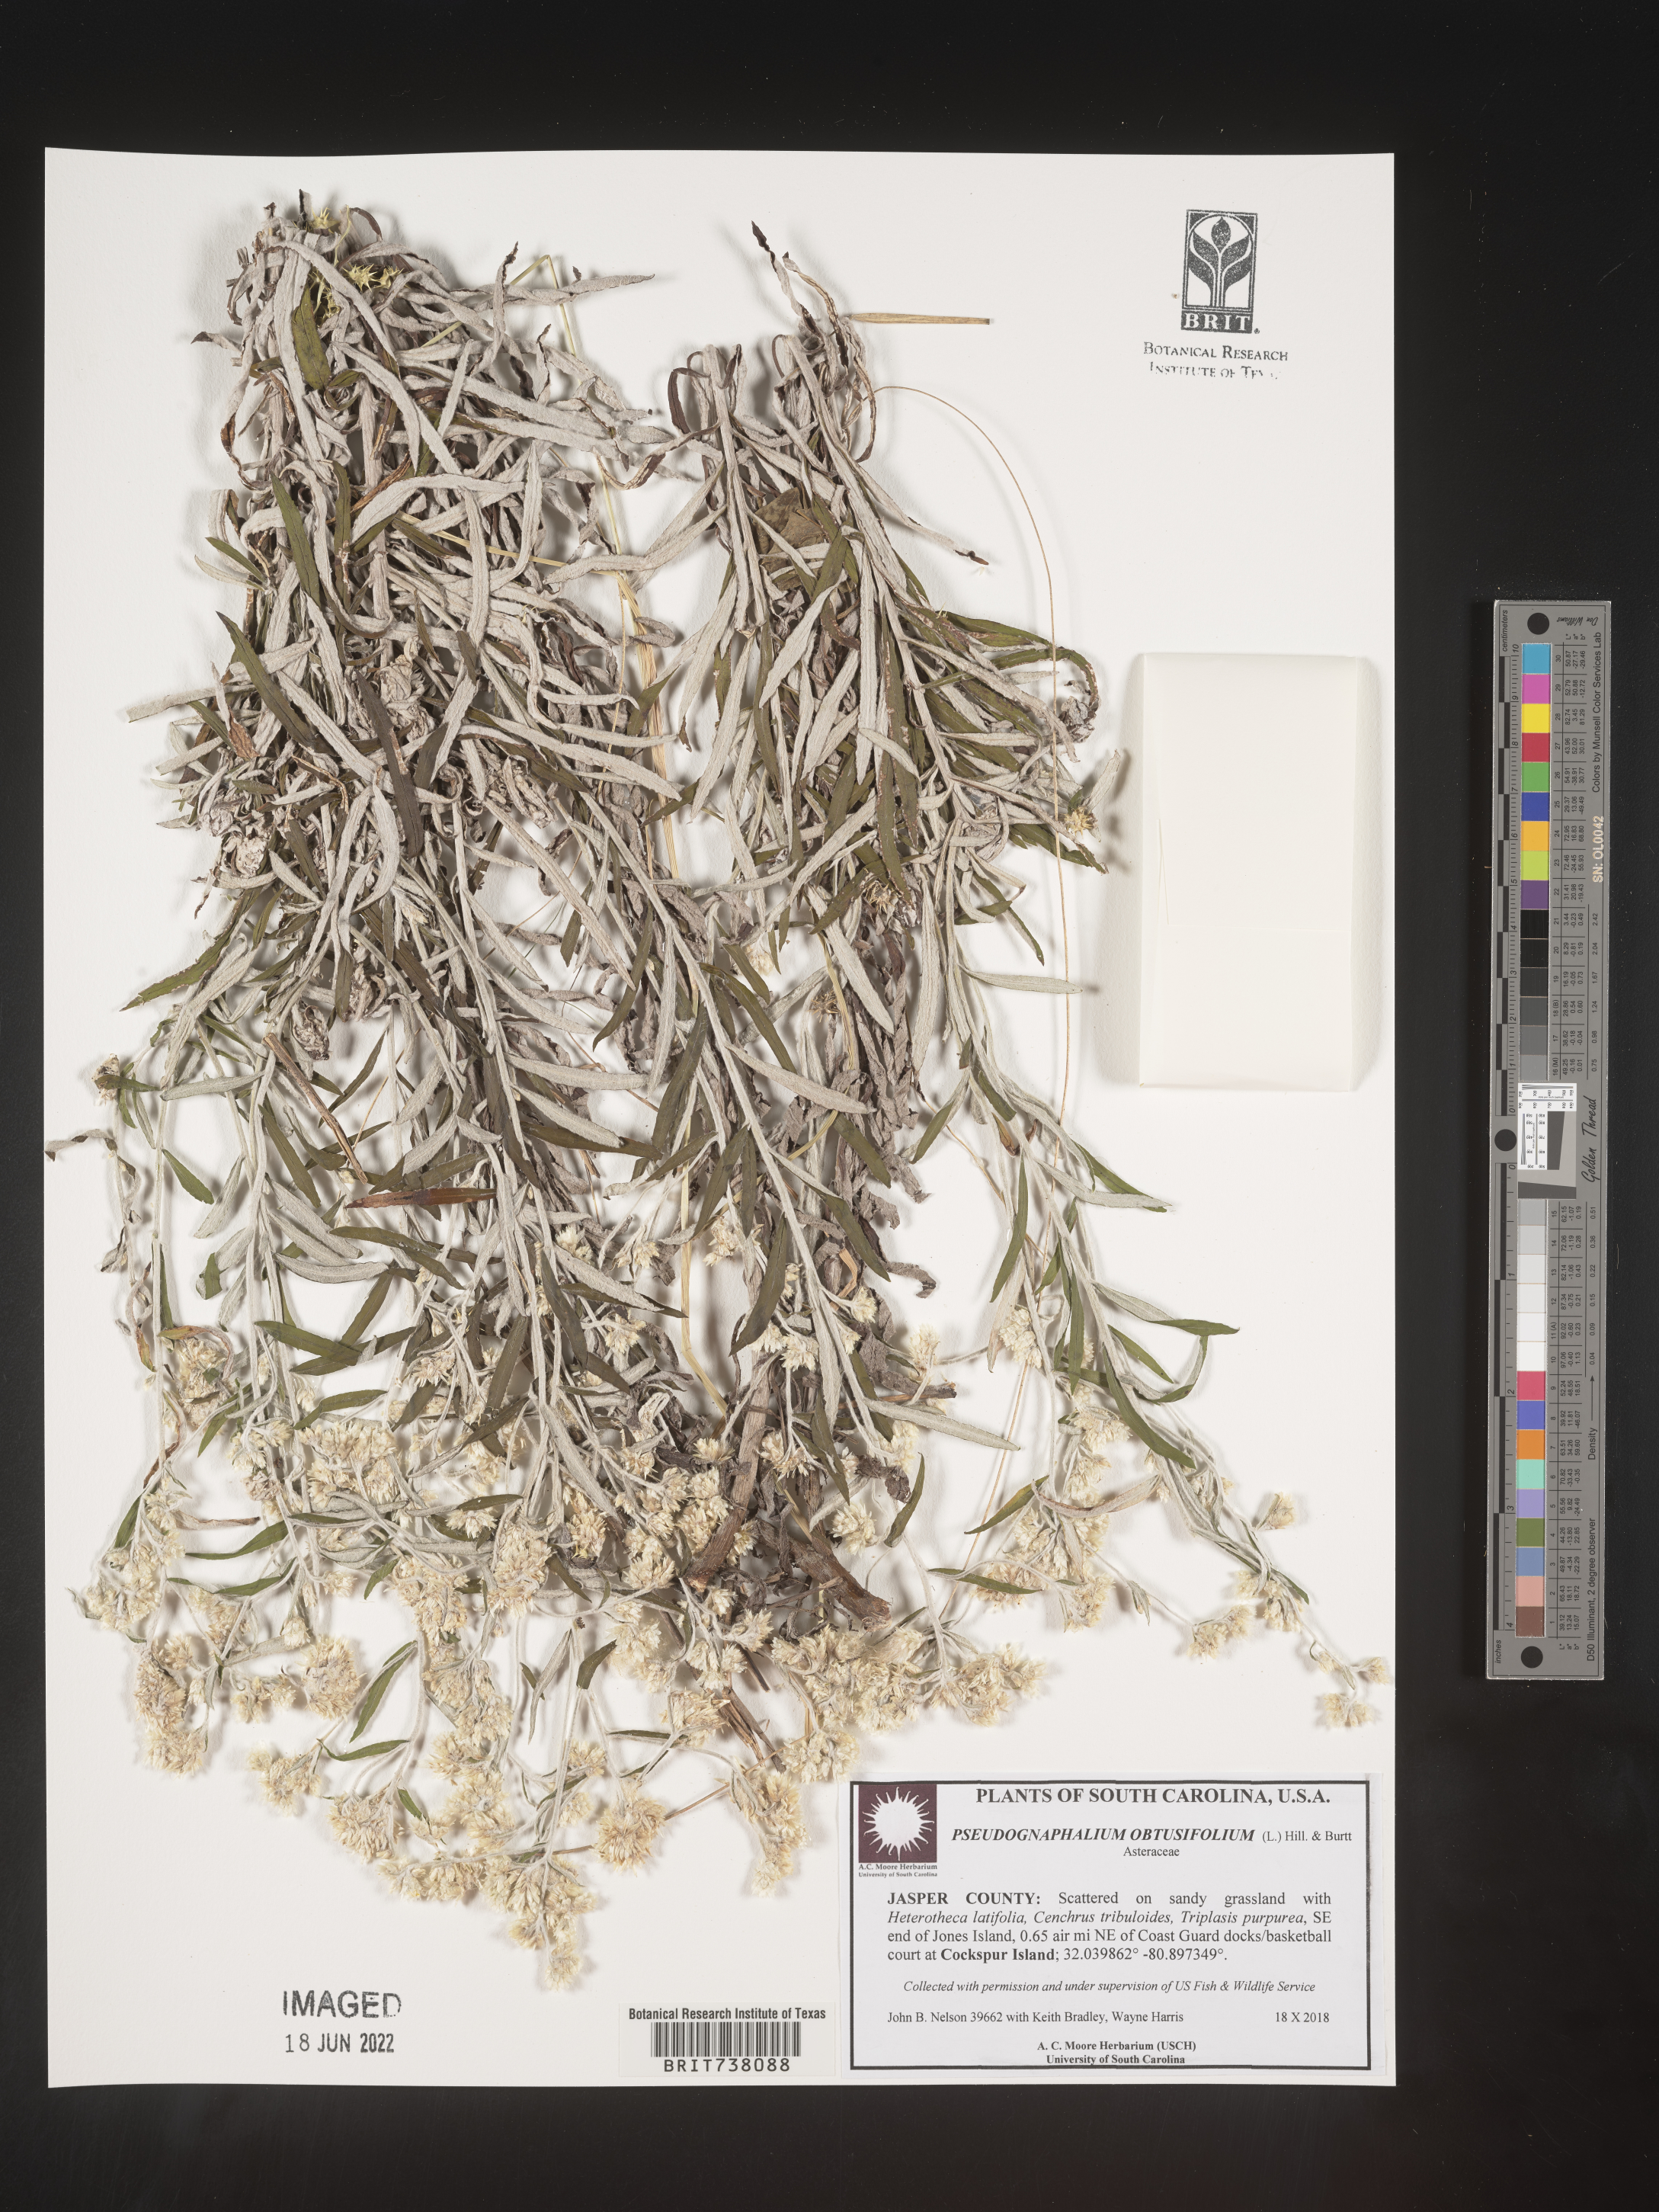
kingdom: Plantae
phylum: Tracheophyta
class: Magnoliopsida
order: Asterales
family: Asteraceae
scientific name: Asteraceae
